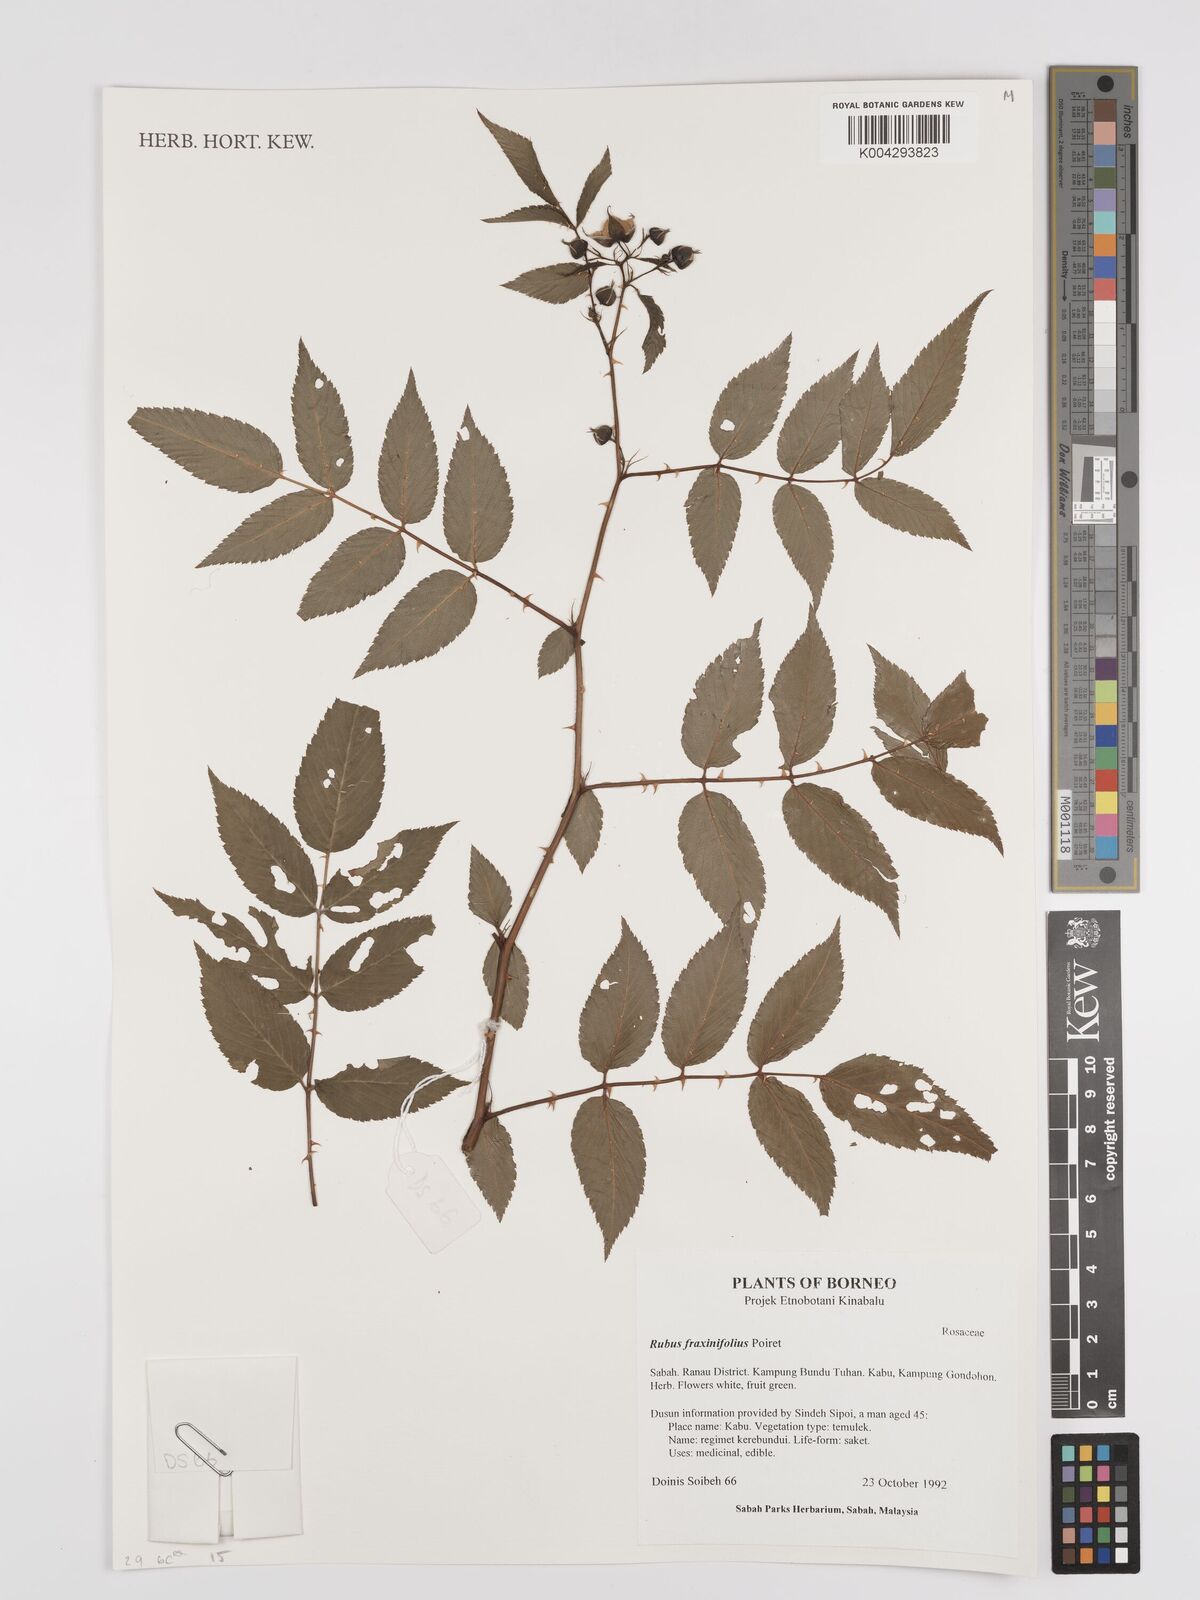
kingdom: Plantae
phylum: Tracheophyta
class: Magnoliopsida
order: Rosales
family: Rosaceae
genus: Rubus
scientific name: Rubus fraxinifolius
